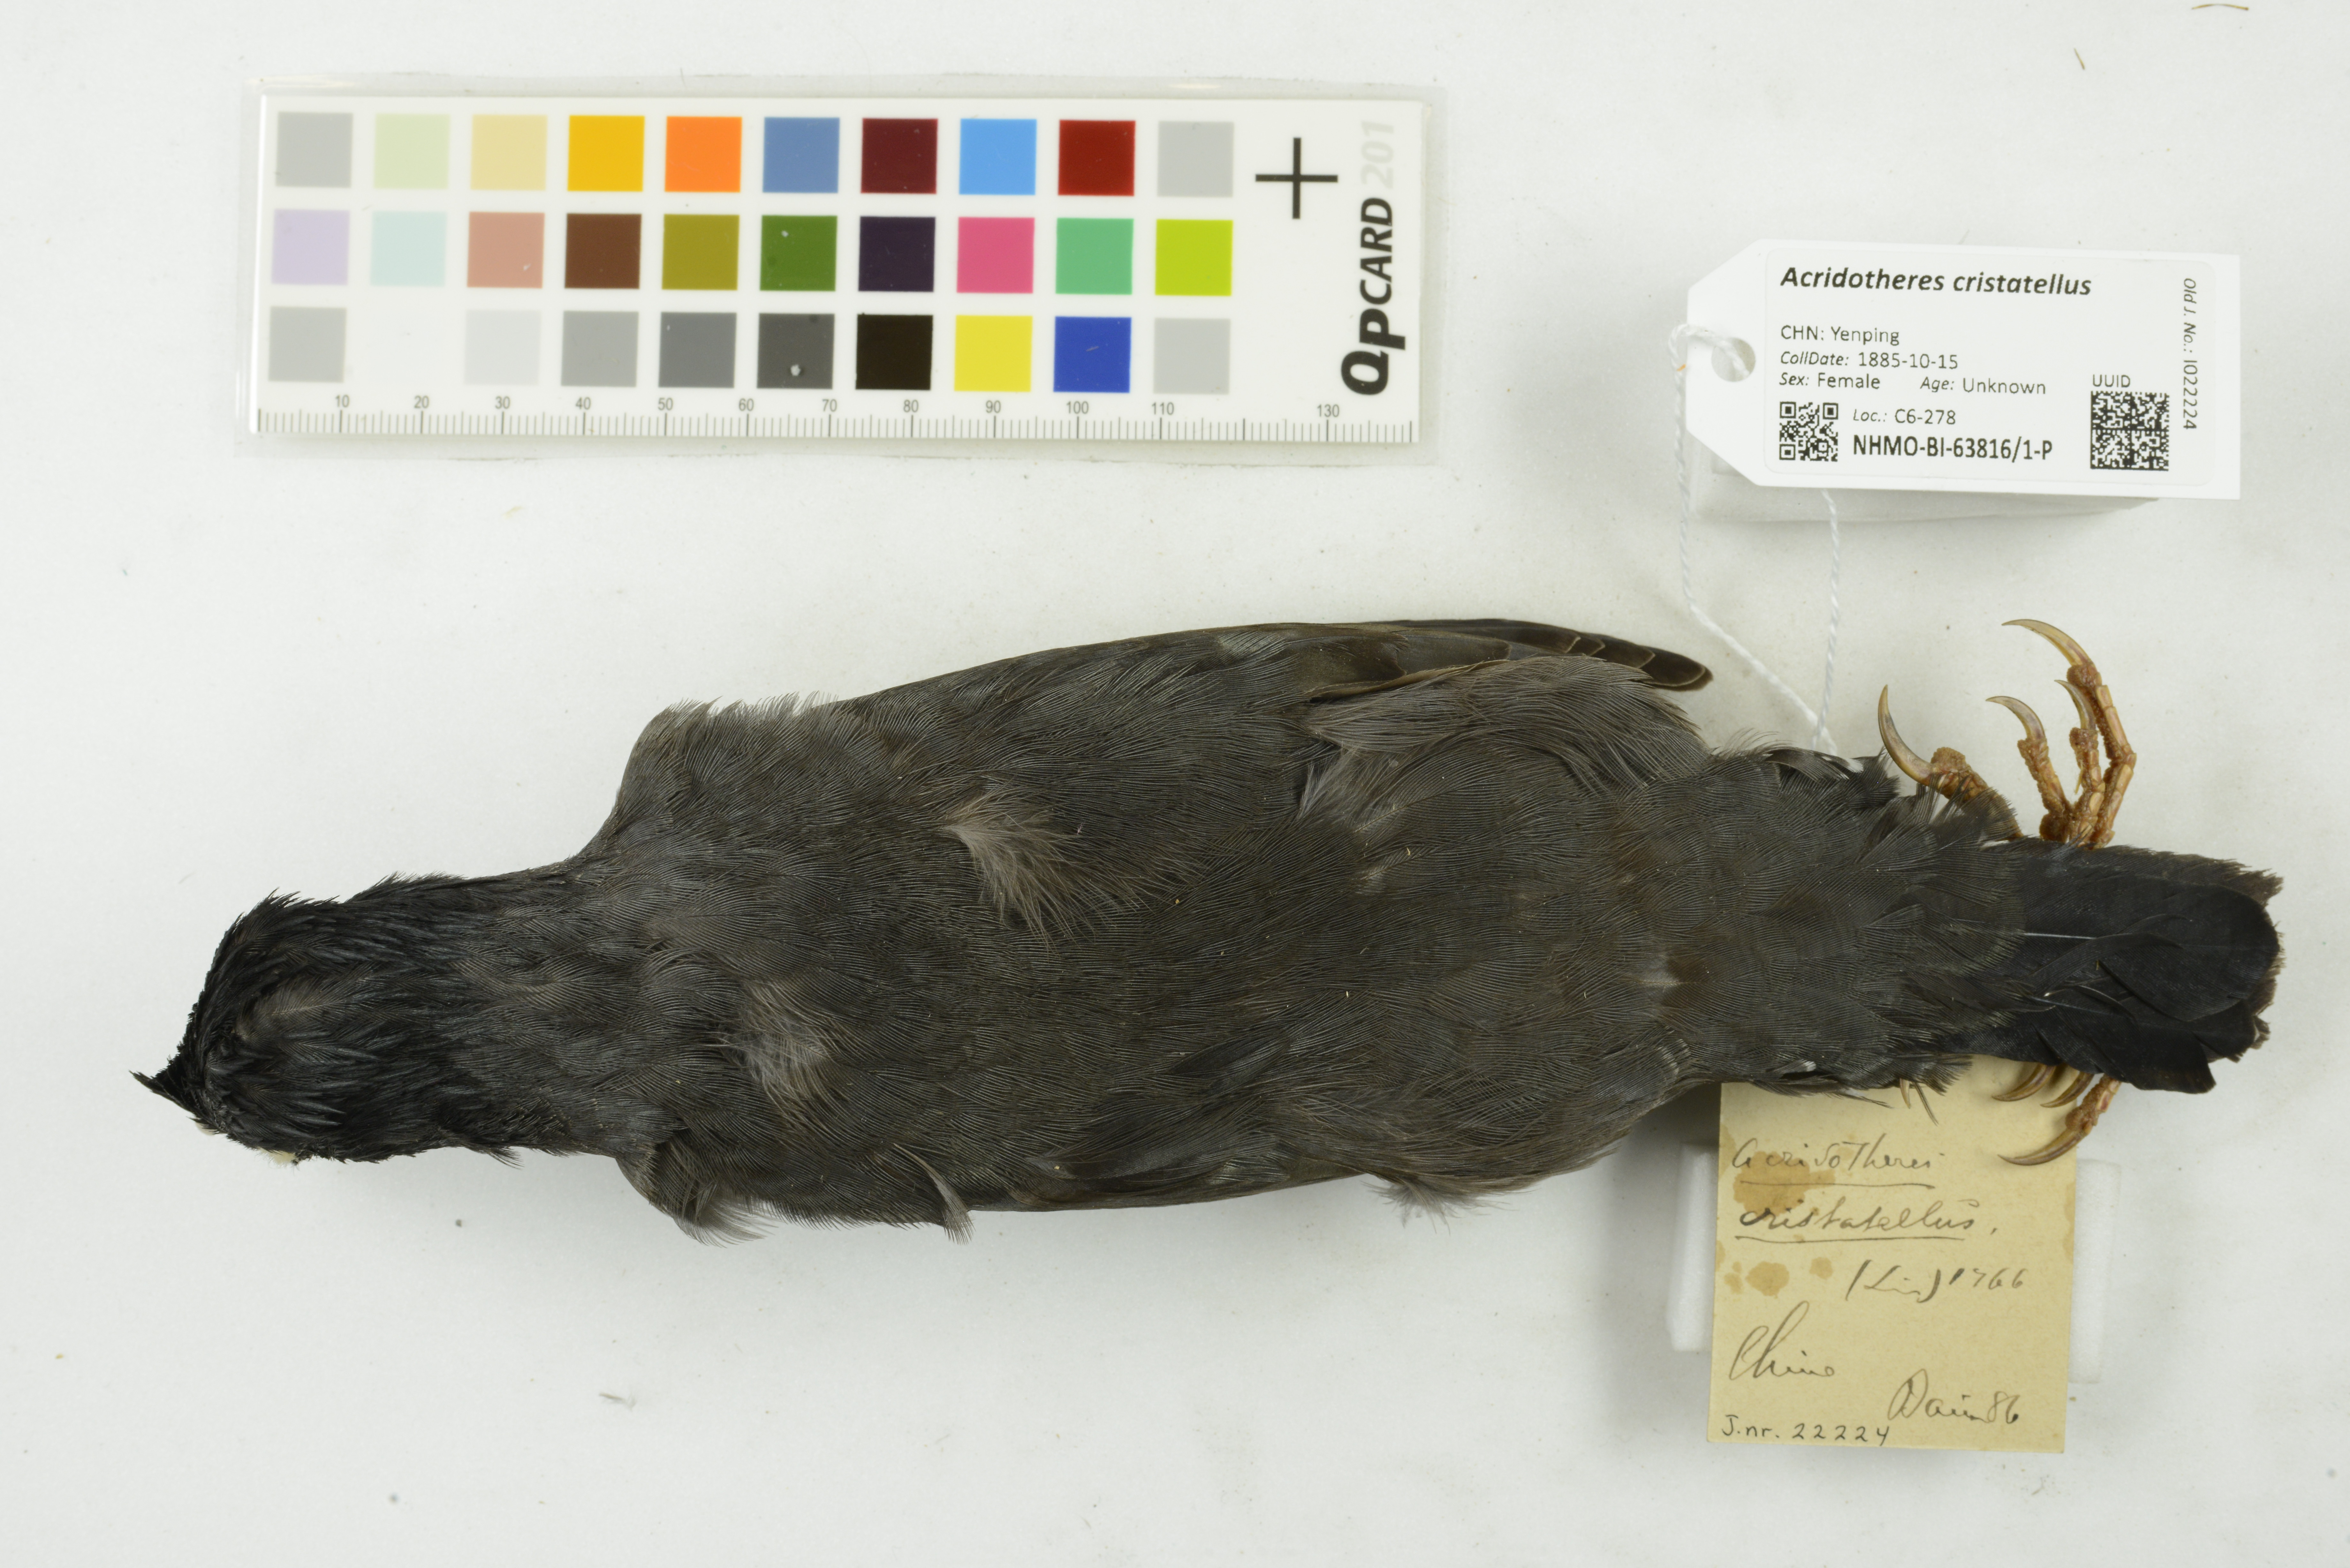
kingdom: Animalia
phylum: Chordata
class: Aves
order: Passeriformes
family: Sturnidae
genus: Acridotheres
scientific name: Acridotheres cristatellus
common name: Crested myna
